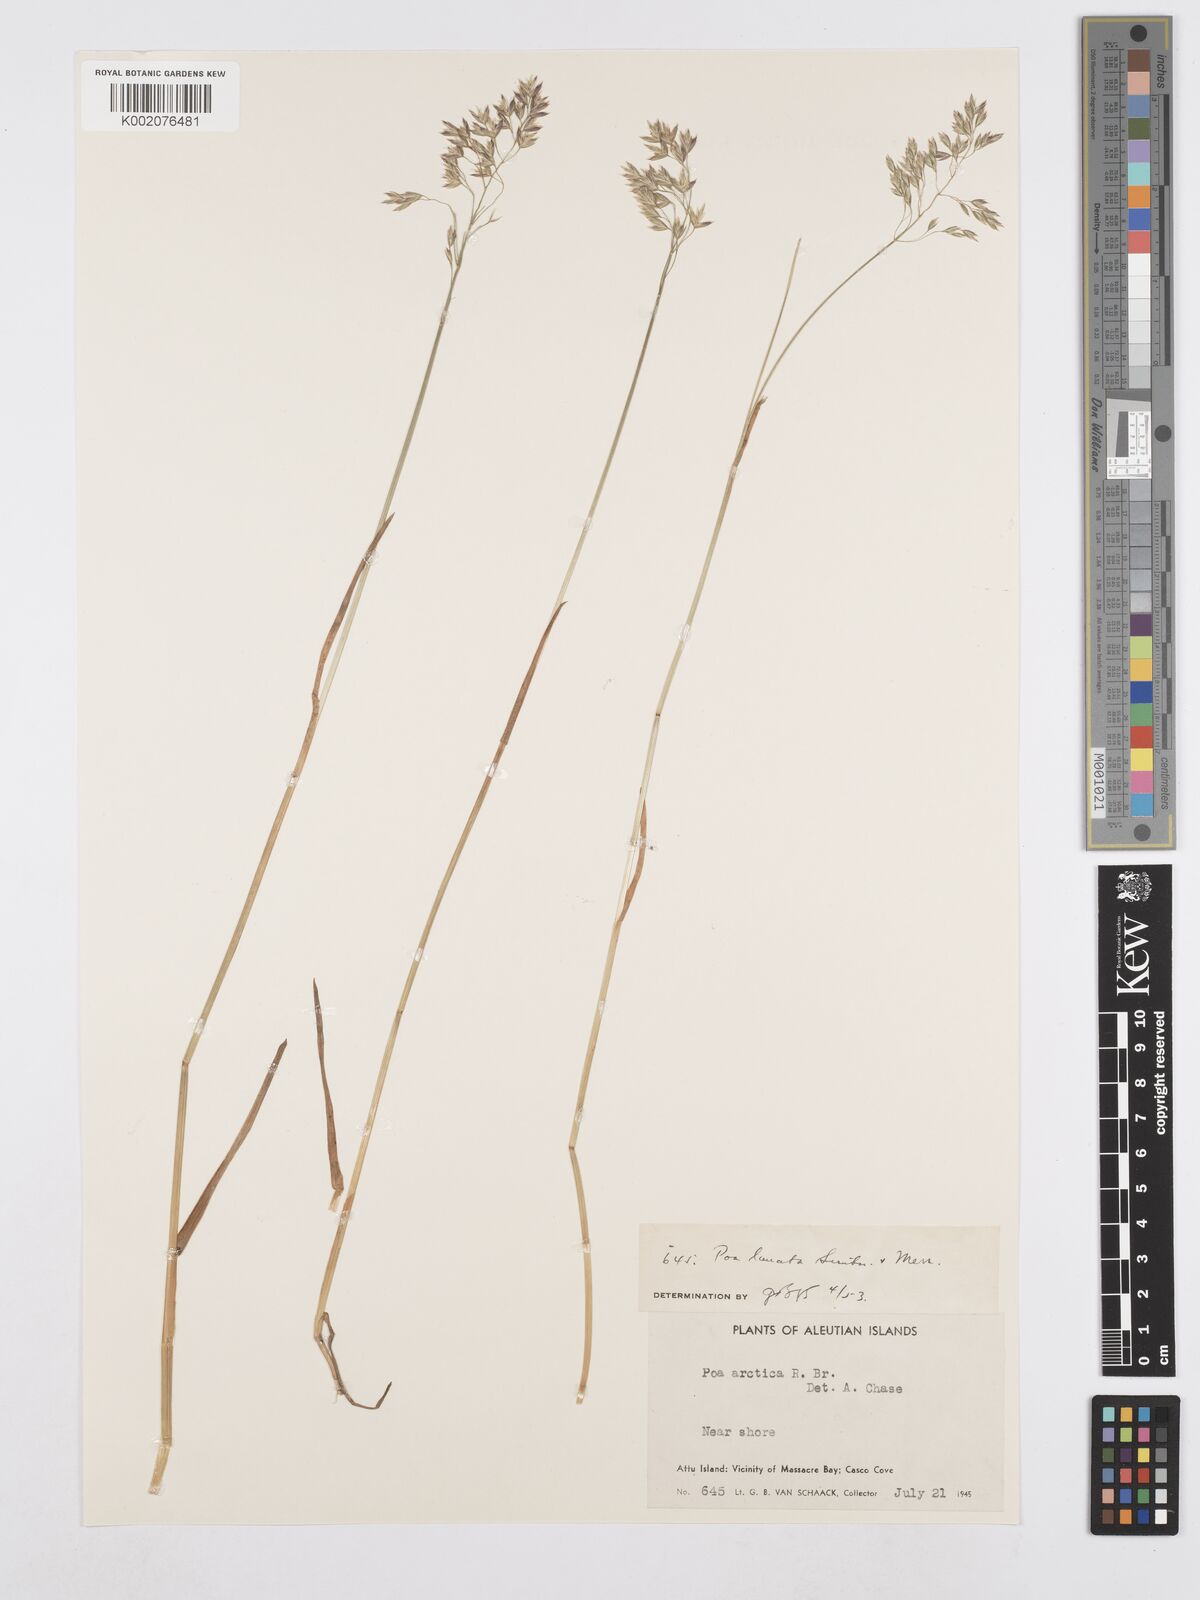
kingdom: Plantae
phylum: Tracheophyta
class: Liliopsida
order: Poales
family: Poaceae
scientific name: Poaceae
